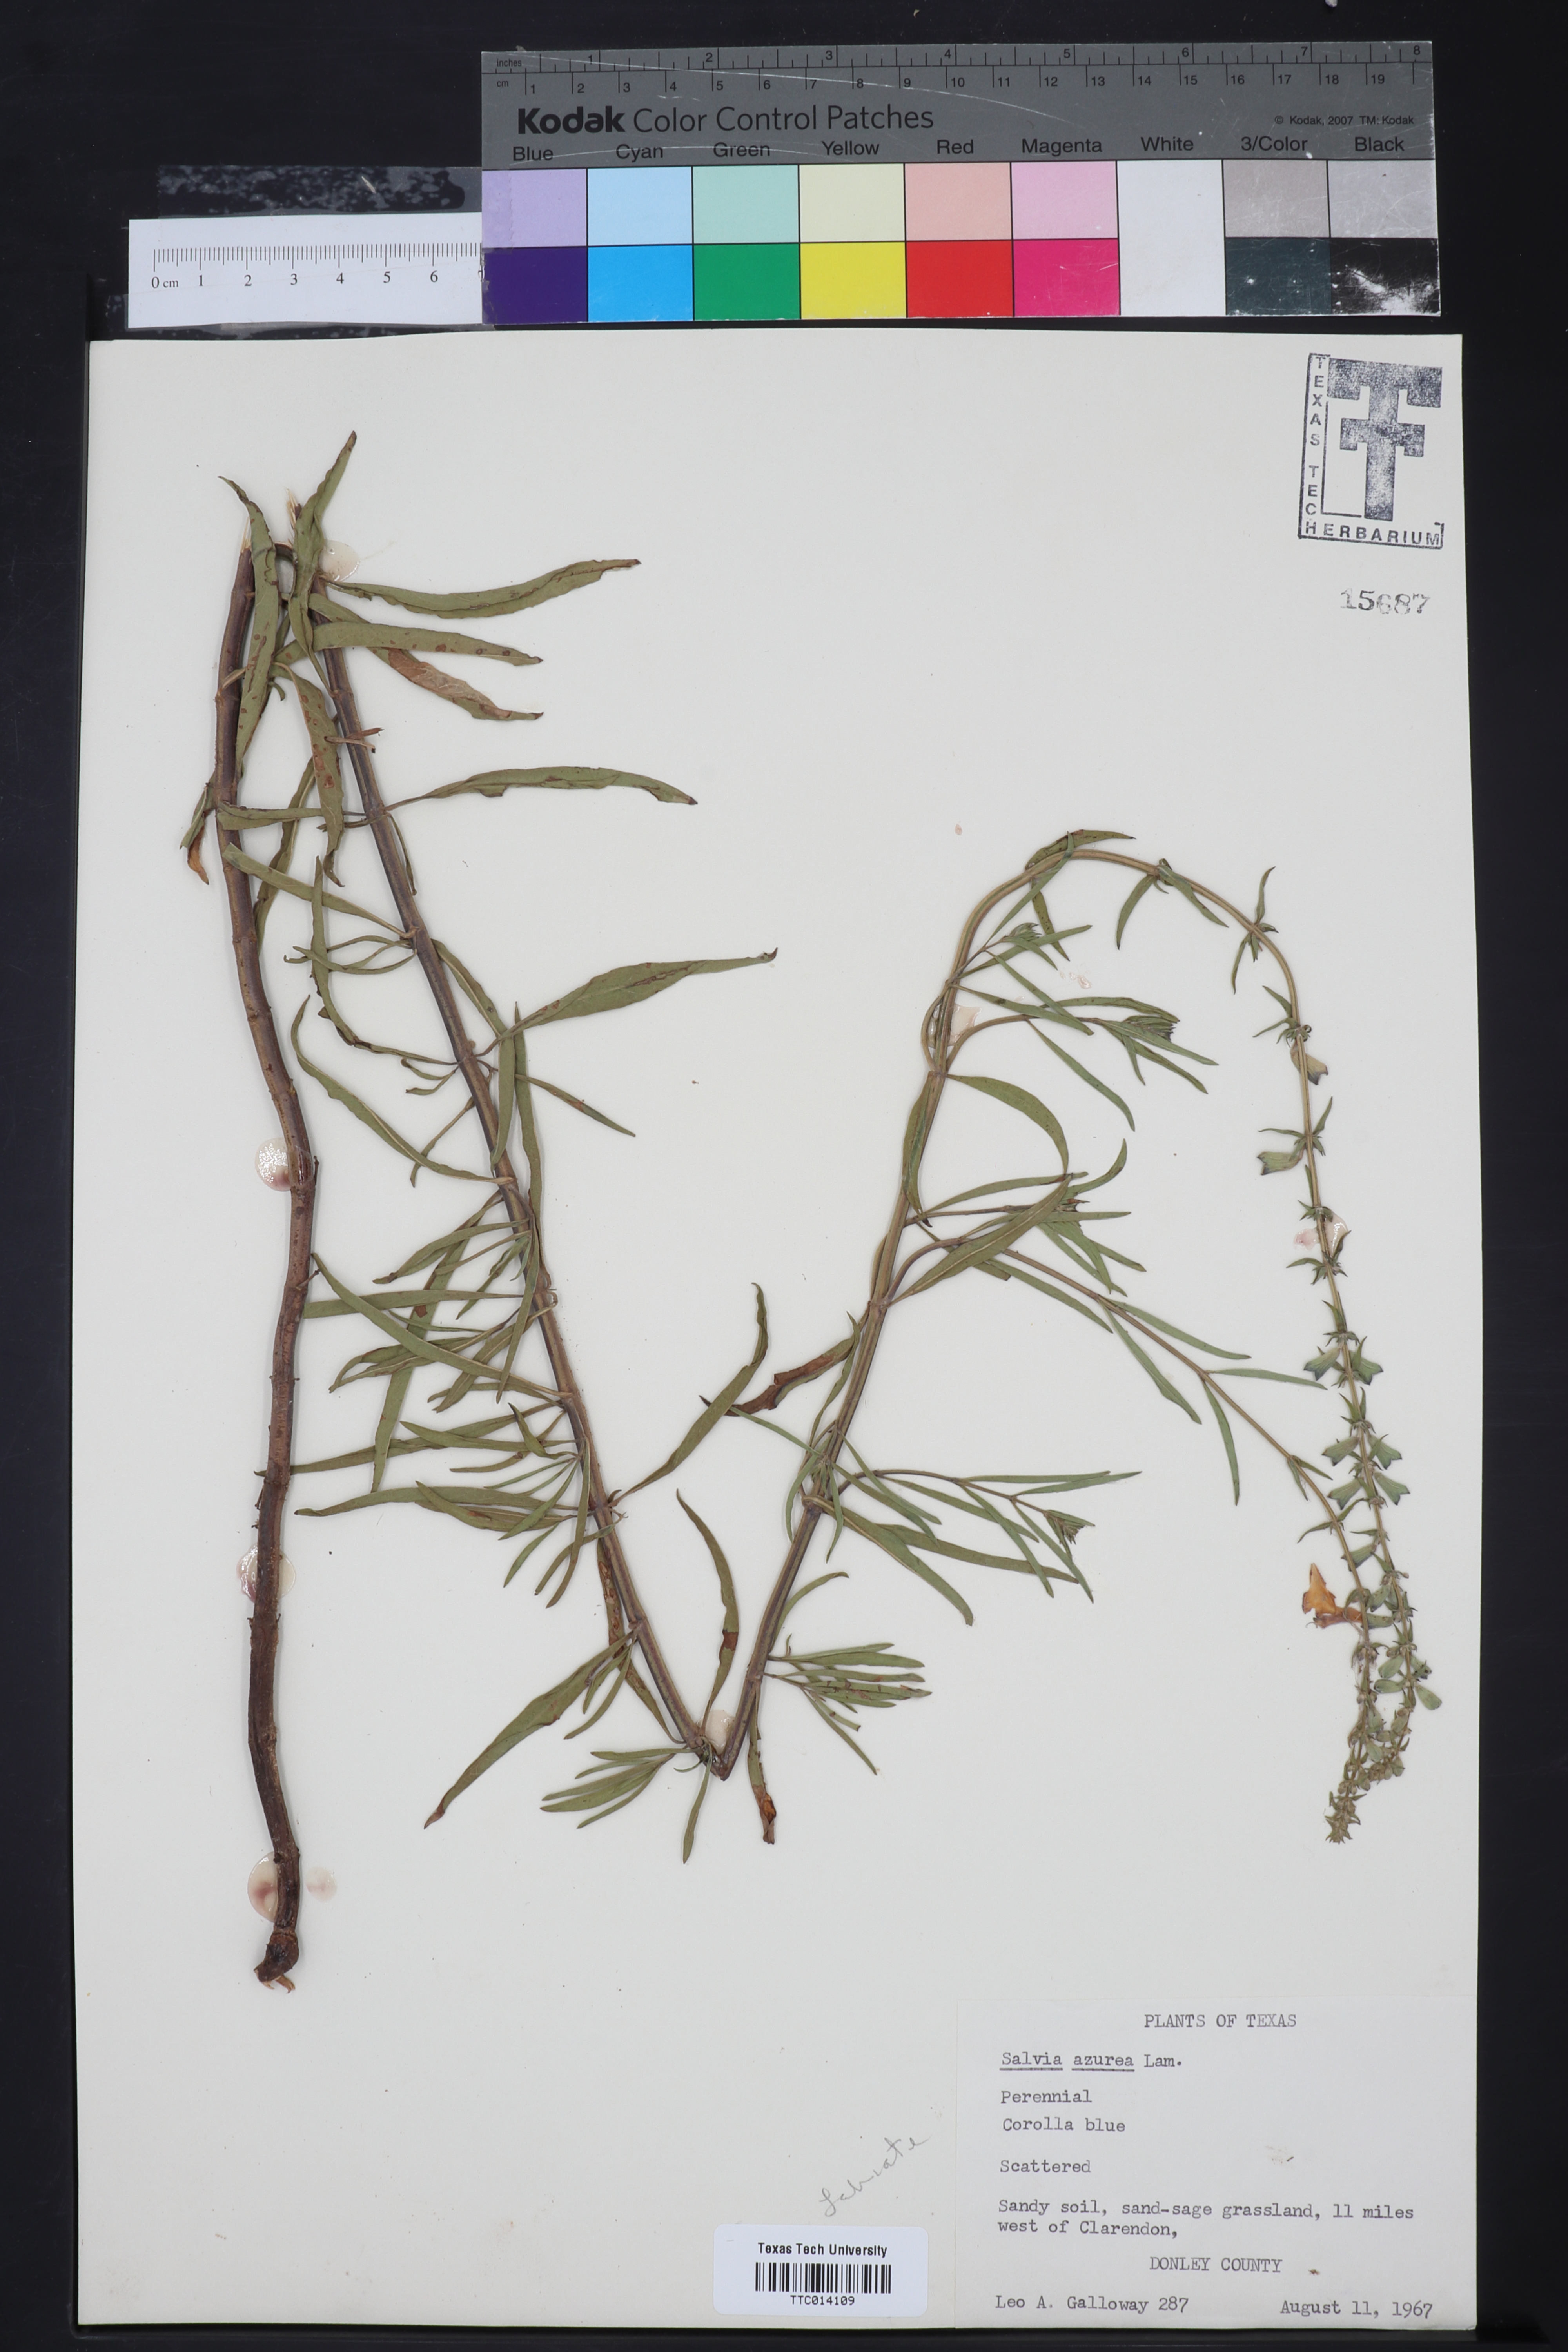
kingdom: Plantae
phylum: Tracheophyta
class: Magnoliopsida
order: Lamiales
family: Lamiaceae
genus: Salvia
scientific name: Salvia azurea
